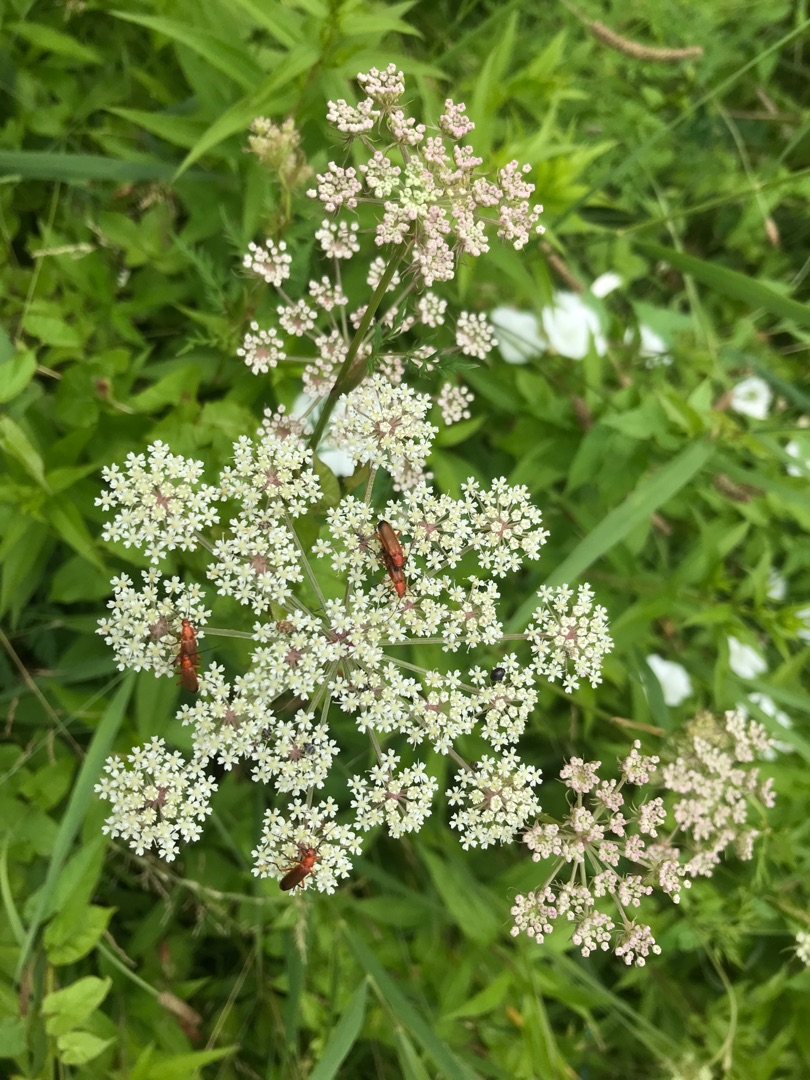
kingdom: Animalia
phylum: Arthropoda
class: Insecta
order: Coleoptera
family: Cantharidae
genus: Rhagonycha
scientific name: Rhagonycha fulva
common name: Præstebille
